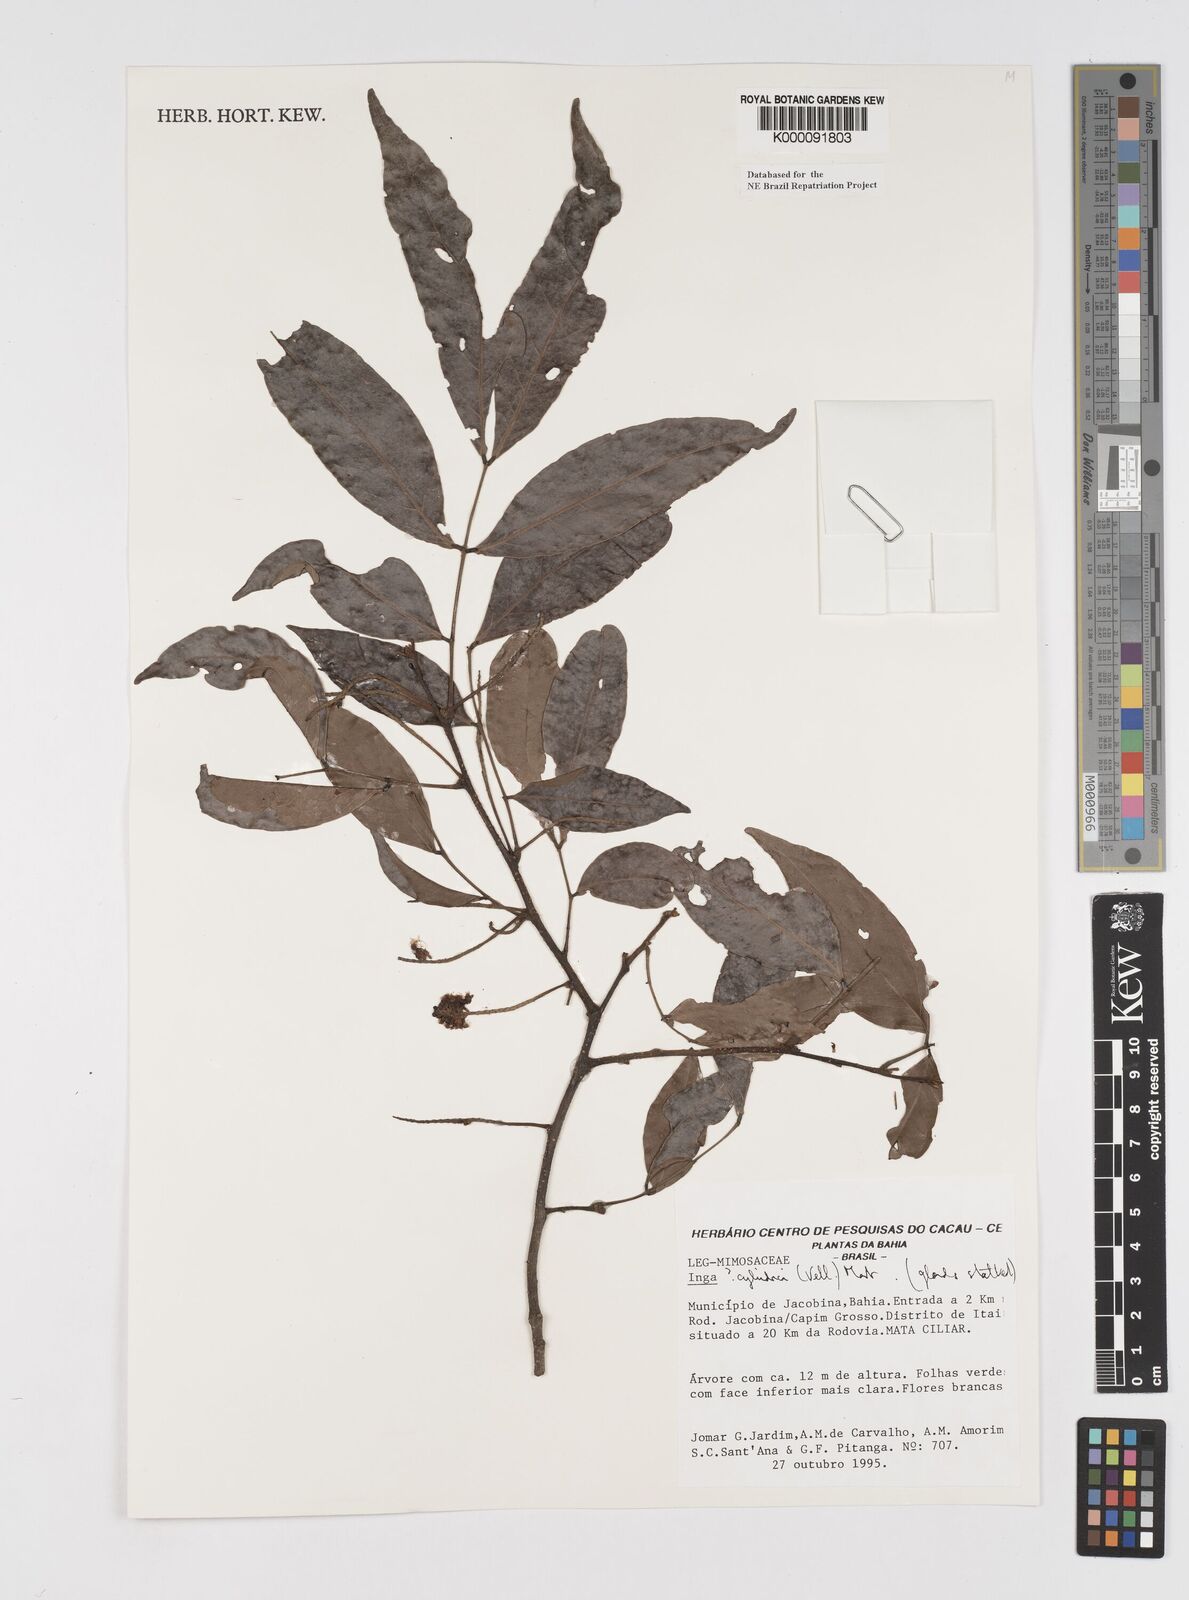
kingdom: Plantae
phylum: Tracheophyta
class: Magnoliopsida
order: Fabales
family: Fabaceae
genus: Inga
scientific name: Inga cylindrica
